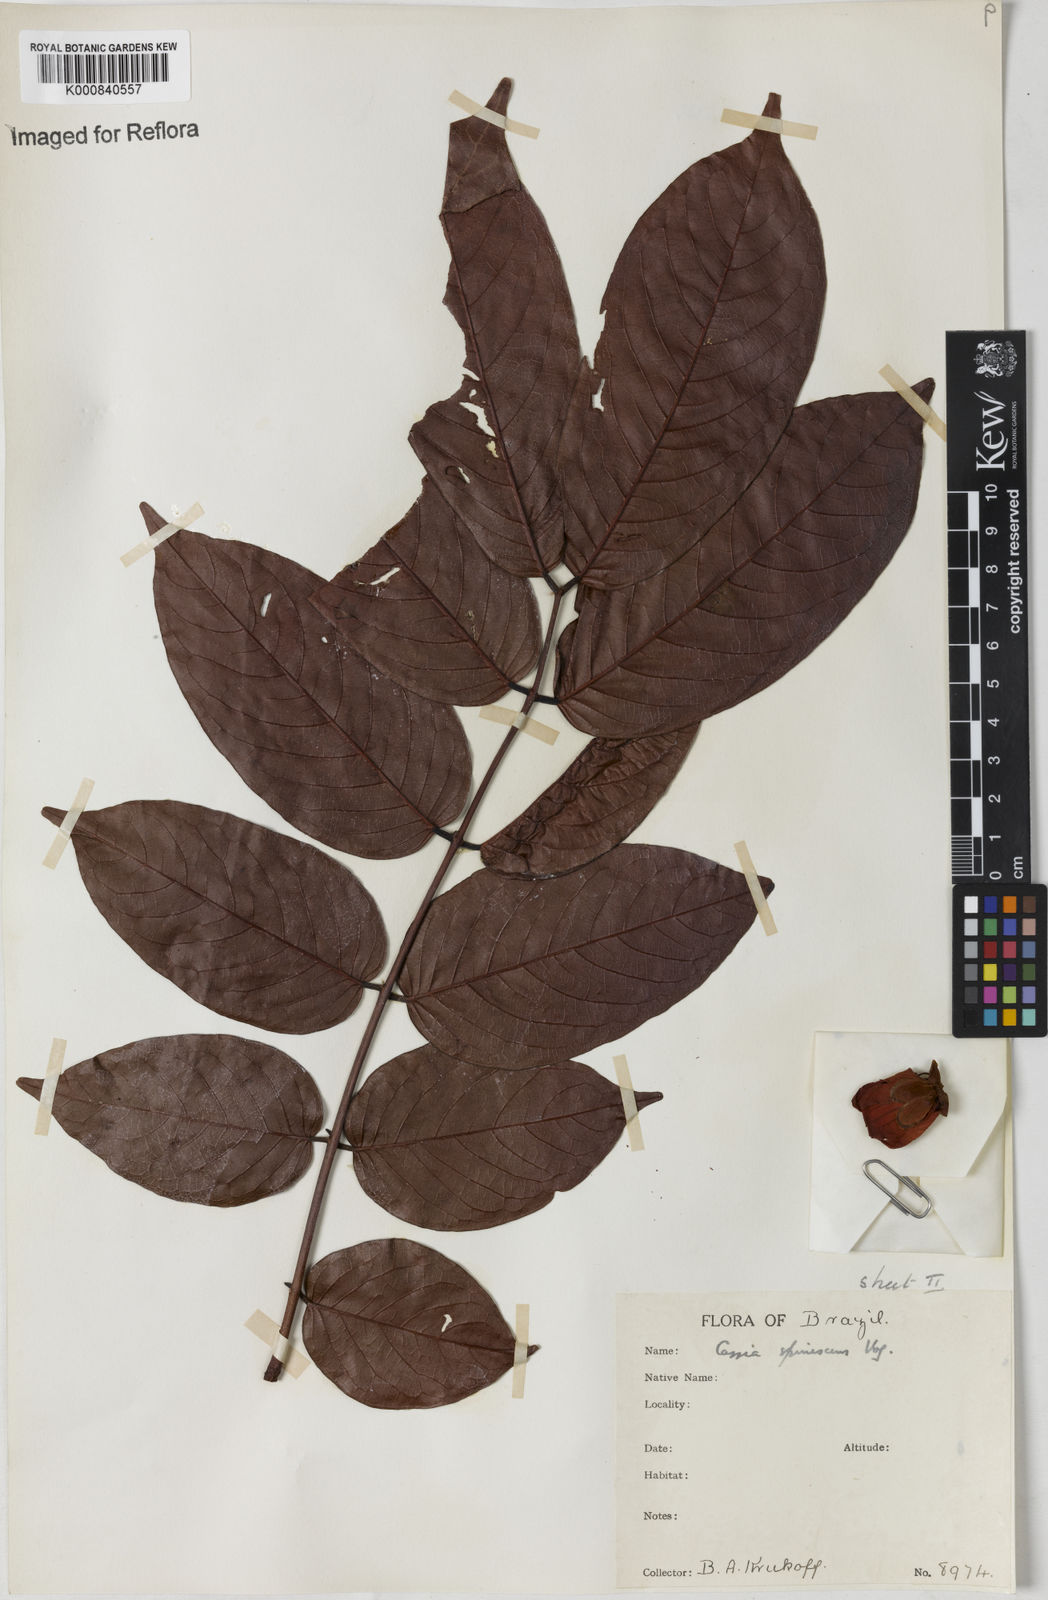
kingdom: Plantae
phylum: Tracheophyta
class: Magnoliopsida
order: Fabales
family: Fabaceae
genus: Senna
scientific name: Senna spinescens
